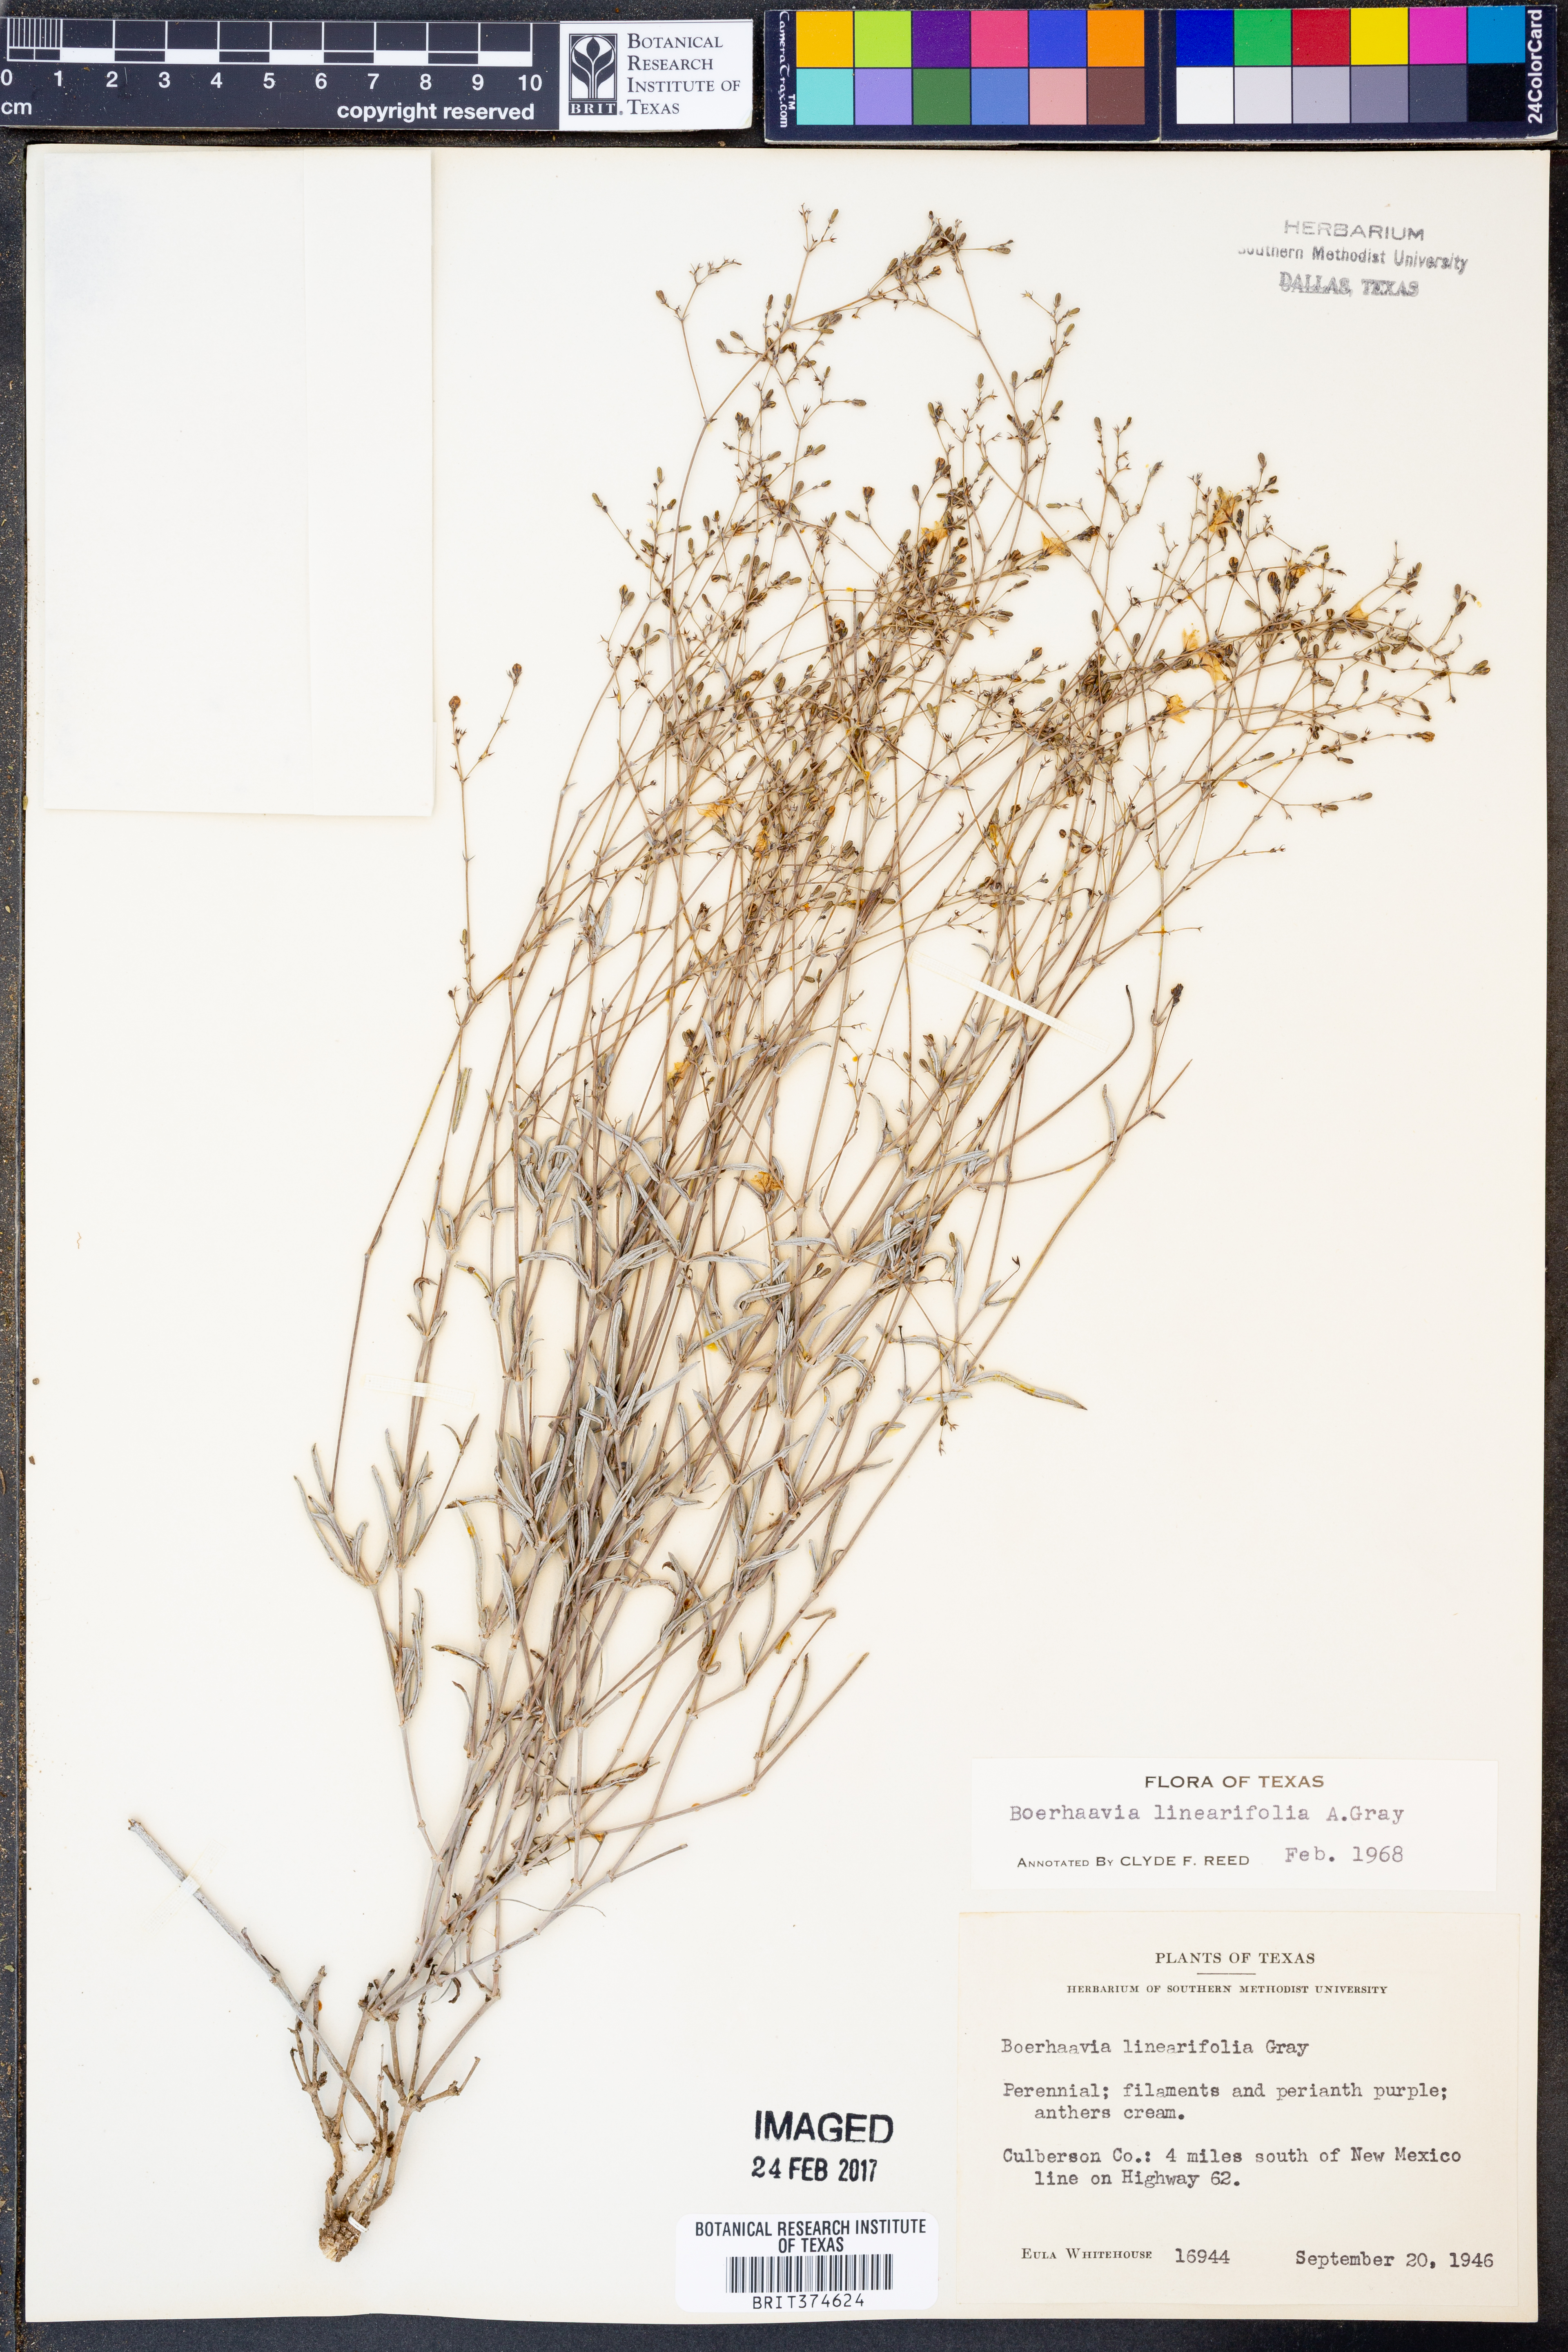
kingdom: Plantae
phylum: Tracheophyta
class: Magnoliopsida
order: Caryophyllales
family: Nyctaginaceae
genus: Boerhavia
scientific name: Boerhavia linearifolia
